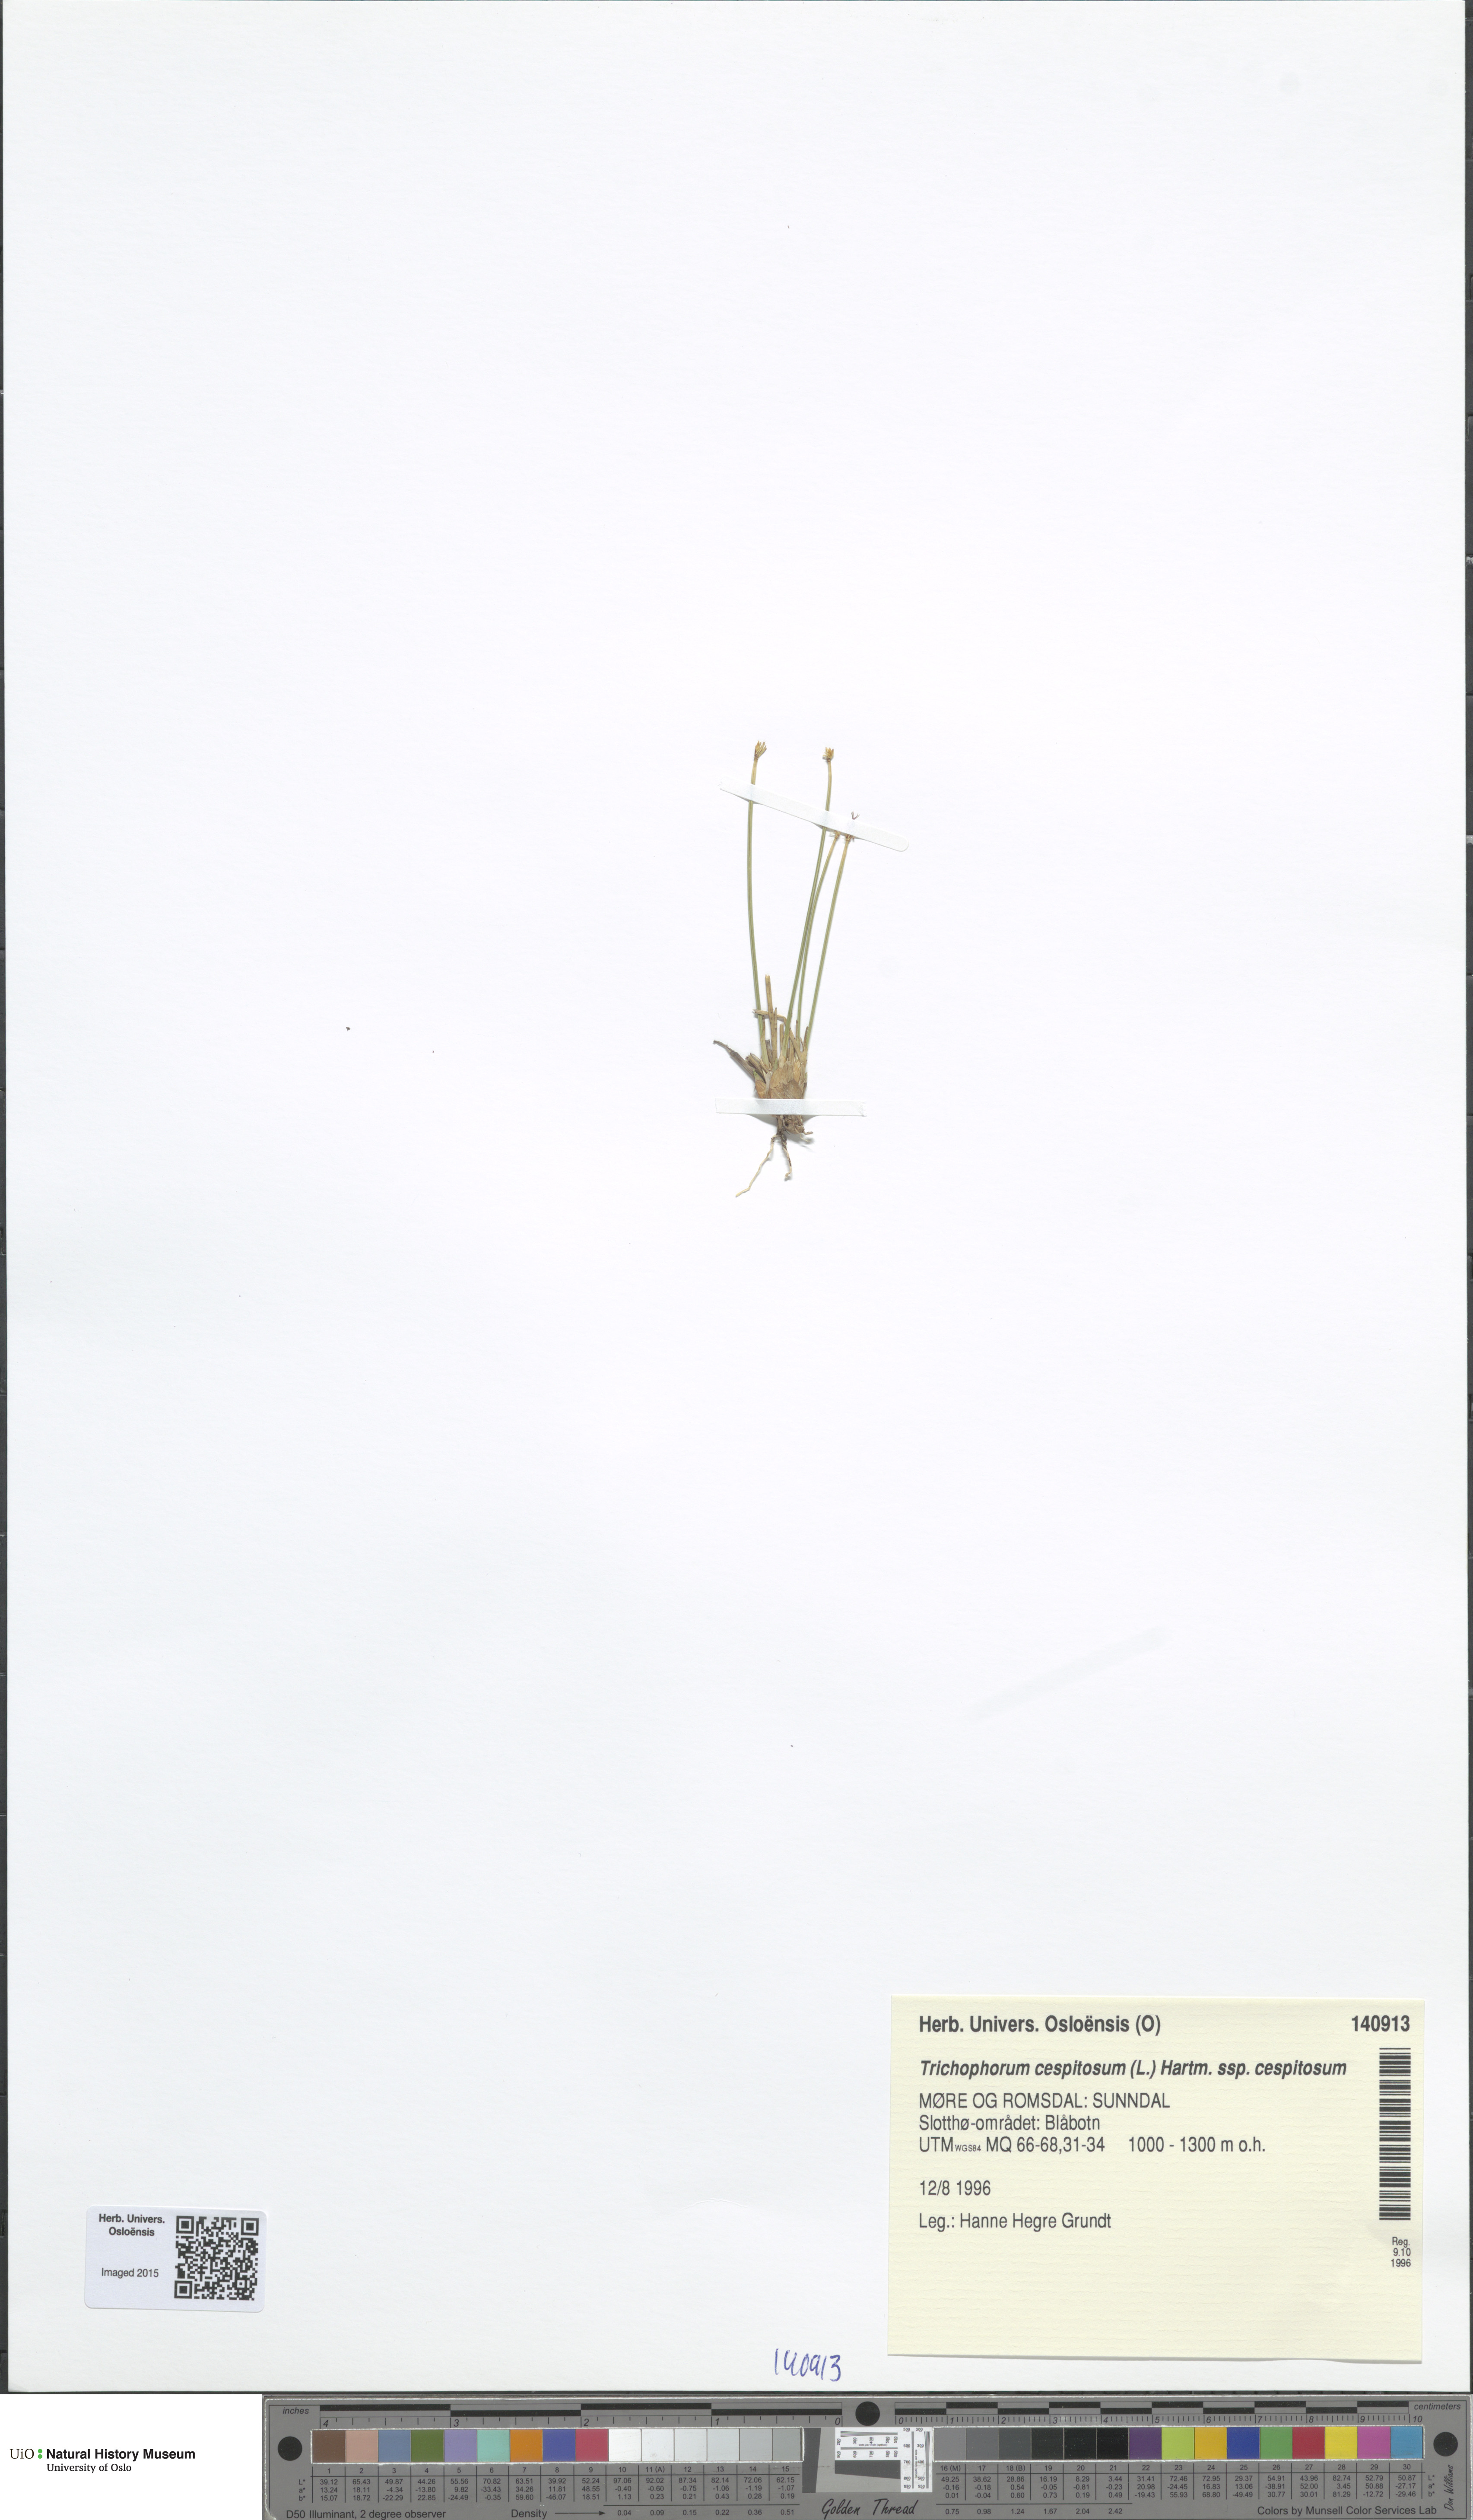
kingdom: Plantae
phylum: Tracheophyta
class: Liliopsida
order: Poales
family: Cyperaceae
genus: Trichophorum
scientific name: Trichophorum cespitosum
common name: Cespitose bulrush
